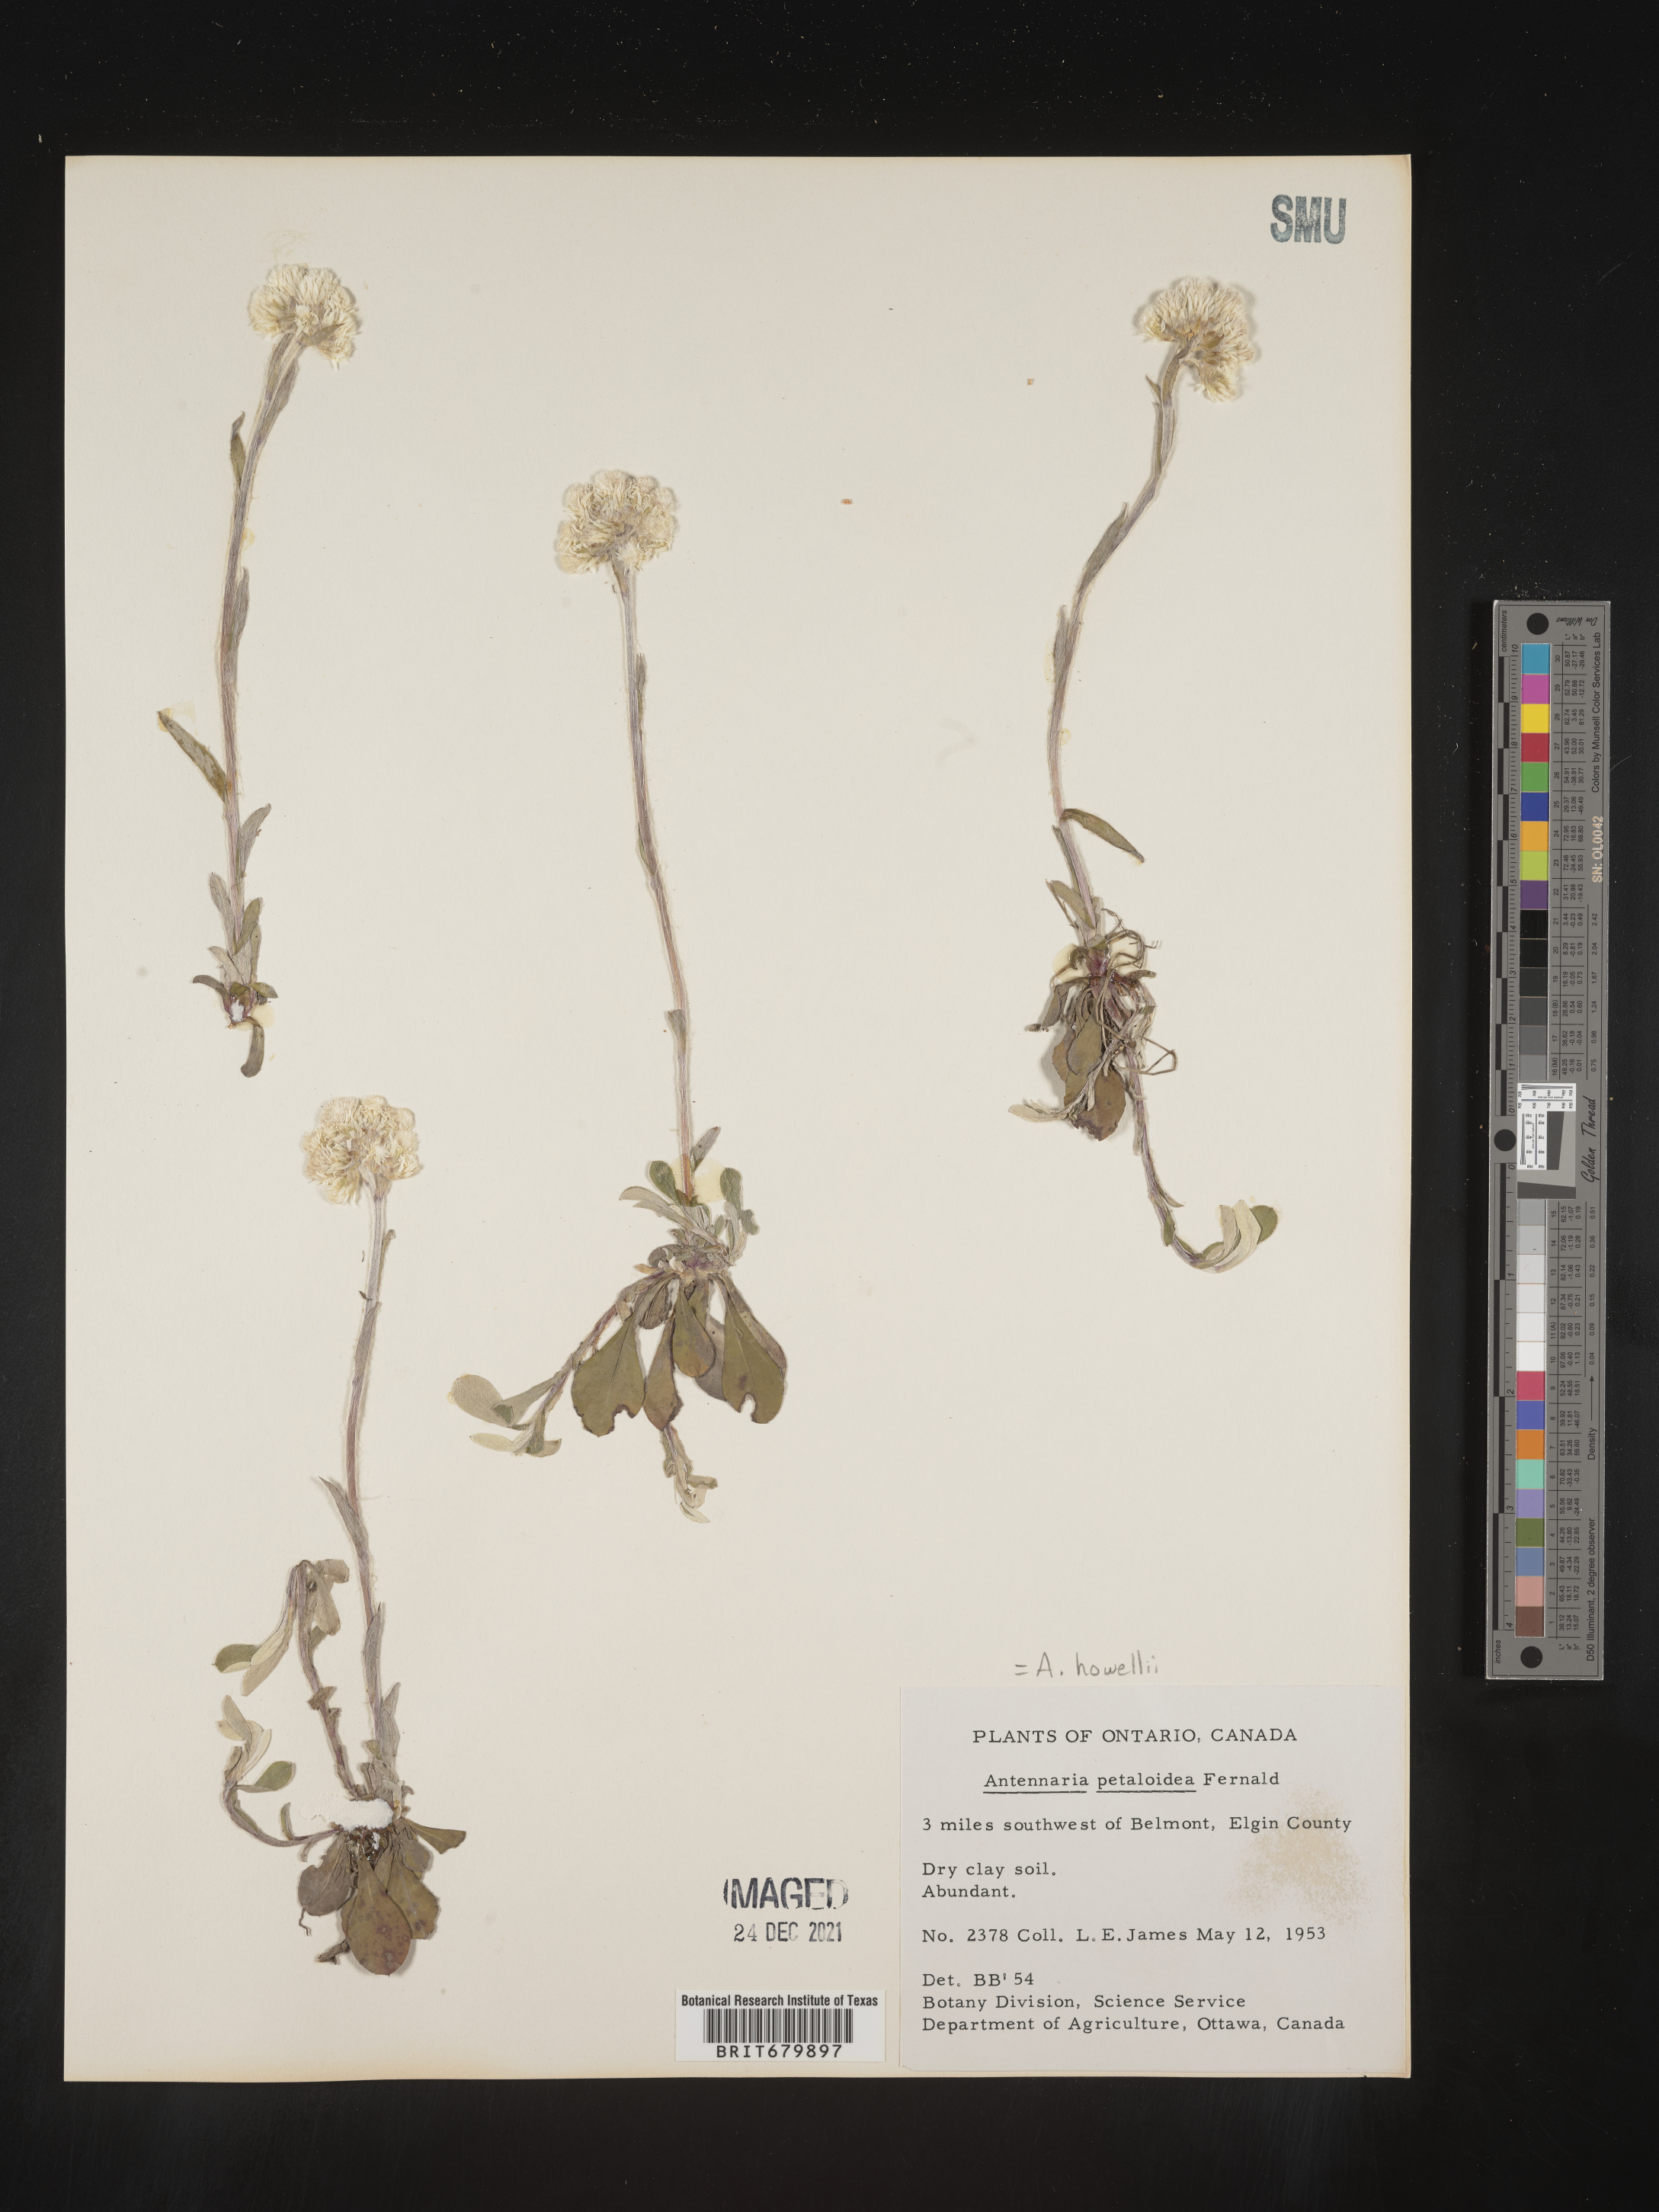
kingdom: Plantae
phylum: Tracheophyta
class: Magnoliopsida
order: Asterales
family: Asteraceae
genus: Antennaria
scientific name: Antennaria howellii
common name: Howell's pussytoes
